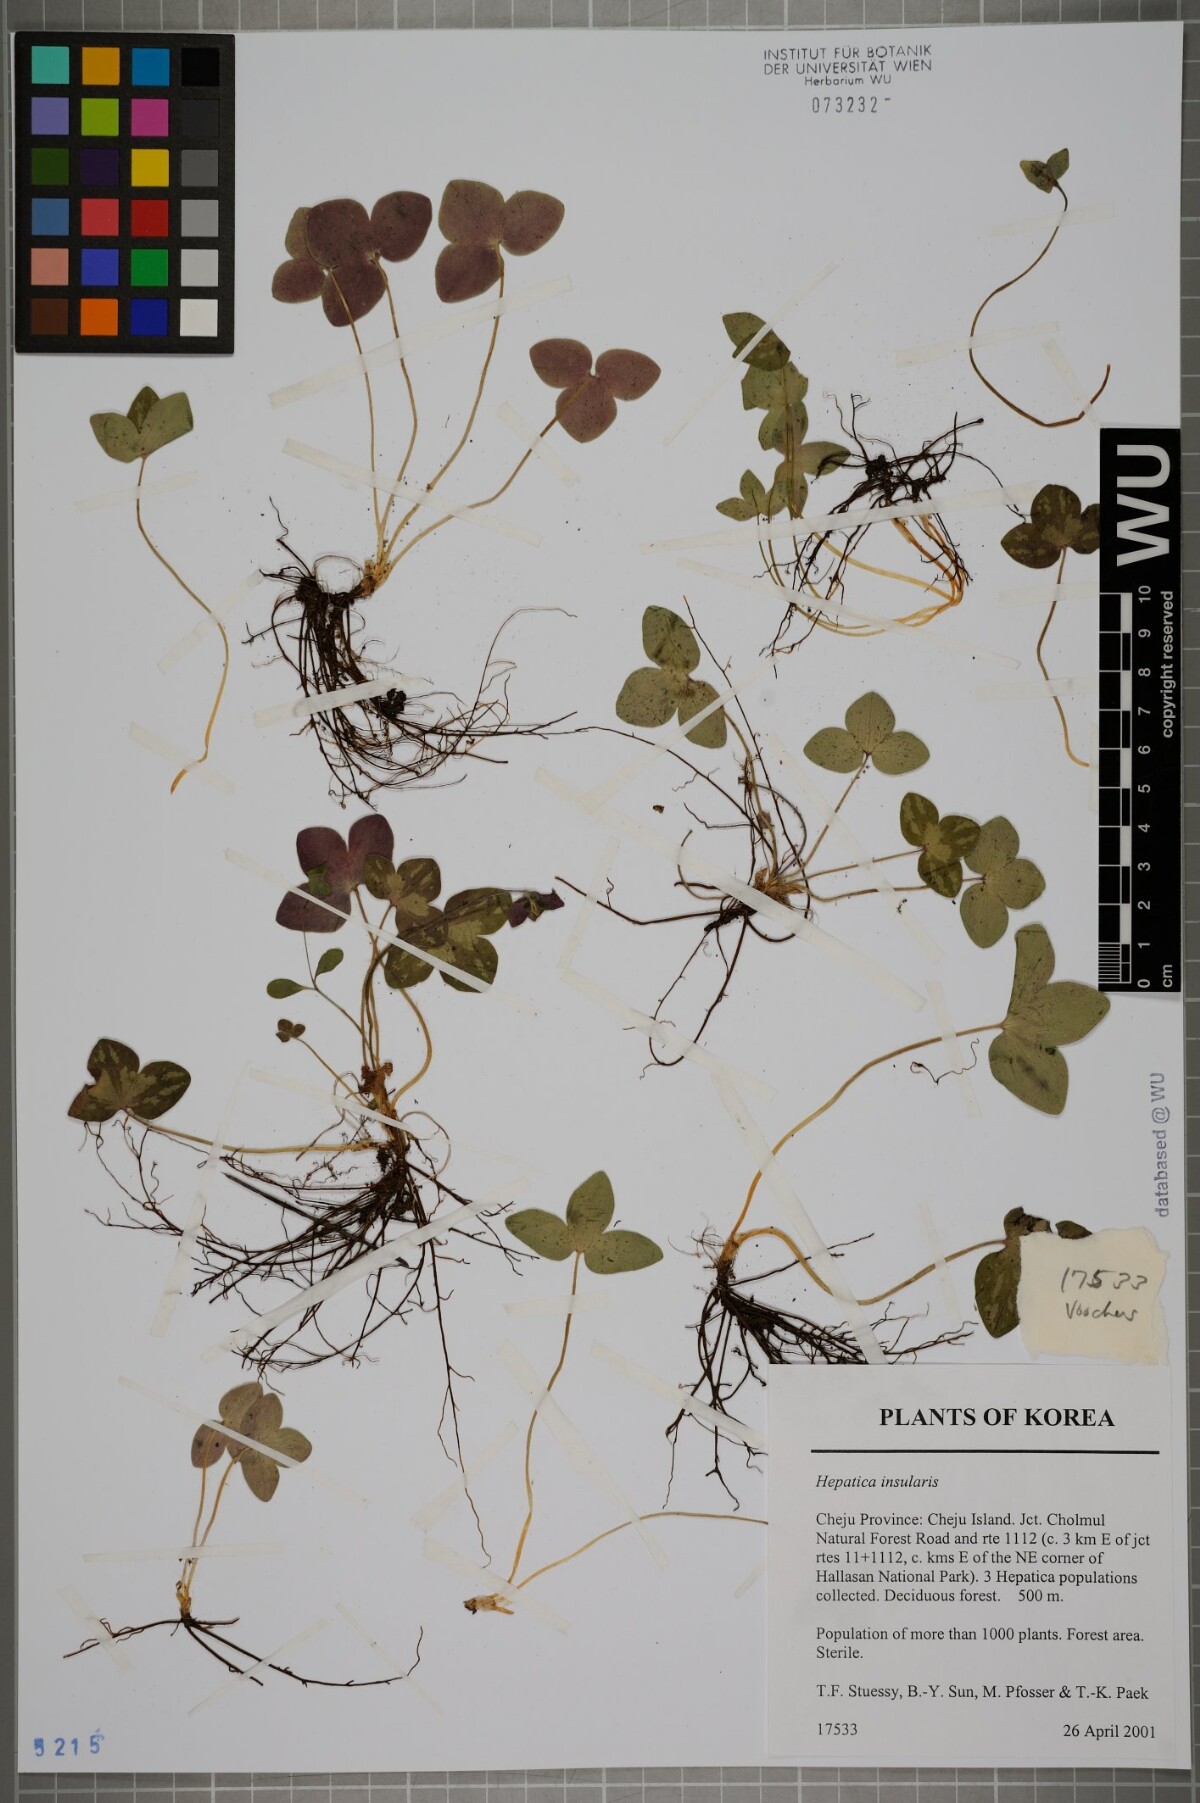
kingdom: Plantae
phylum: Tracheophyta
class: Magnoliopsida
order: Ranunculales
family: Ranunculaceae
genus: Hepatica
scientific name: Hepatica insularis
